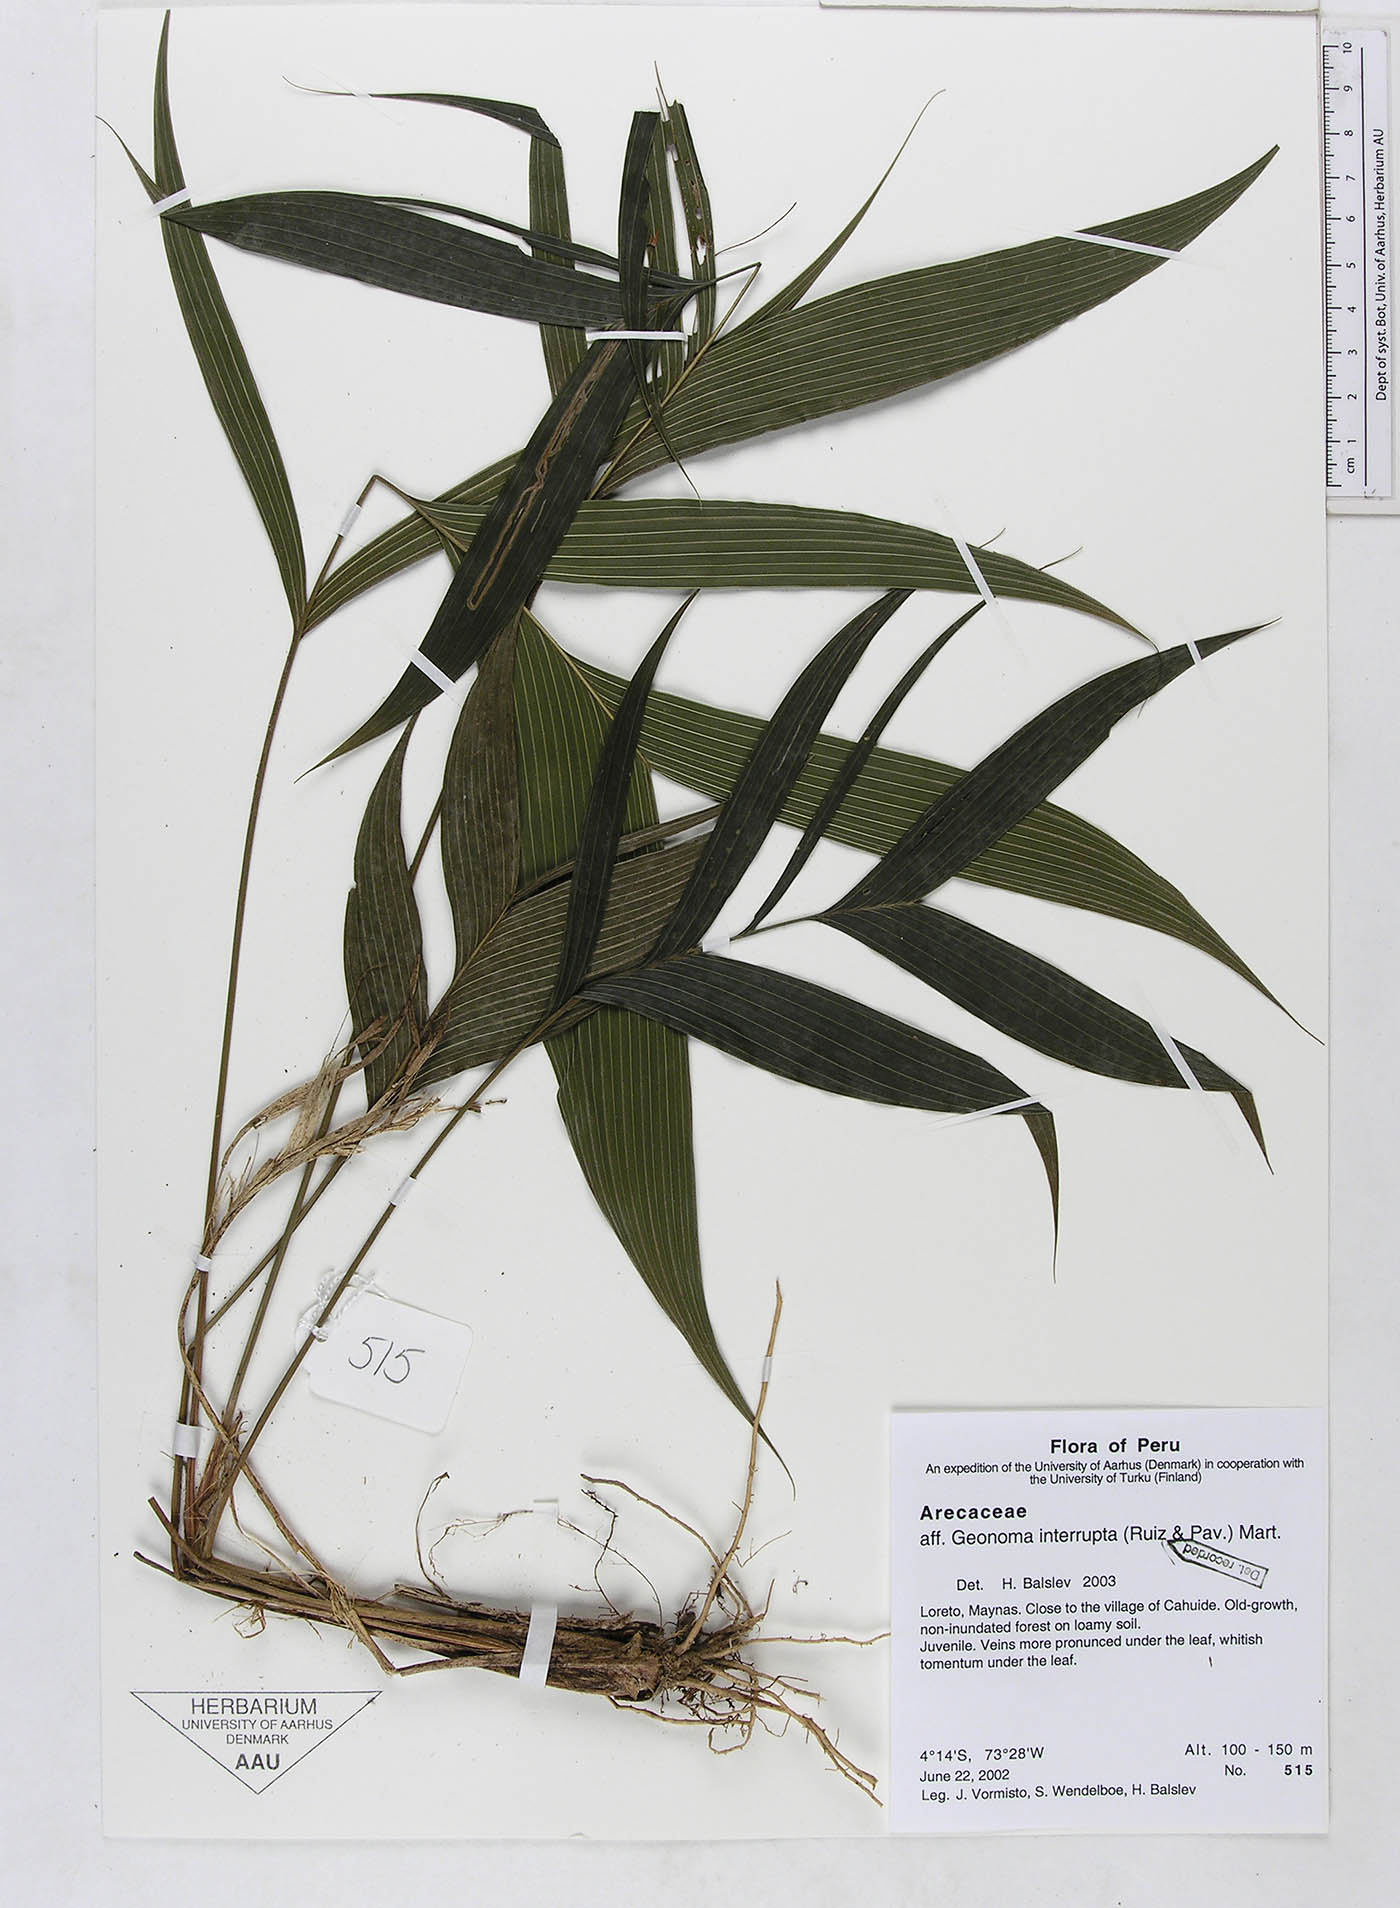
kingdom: Plantae
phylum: Tracheophyta
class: Liliopsida
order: Arecales
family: Arecaceae
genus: Geonoma
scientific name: Geonoma interrupta
